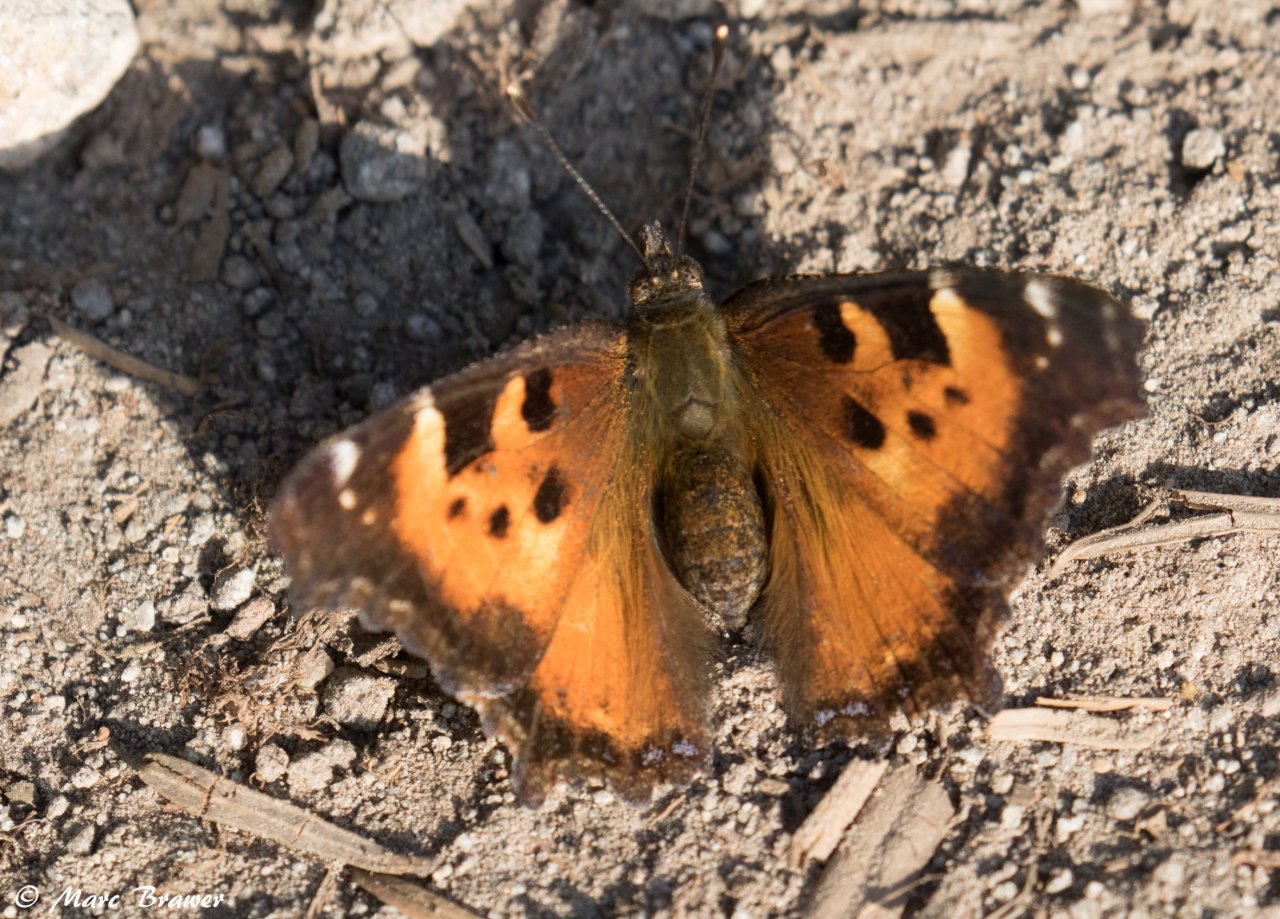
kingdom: Animalia
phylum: Arthropoda
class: Insecta
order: Lepidoptera
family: Nymphalidae
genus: Nymphalis
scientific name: Nymphalis californica
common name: California Tortoiseshell
